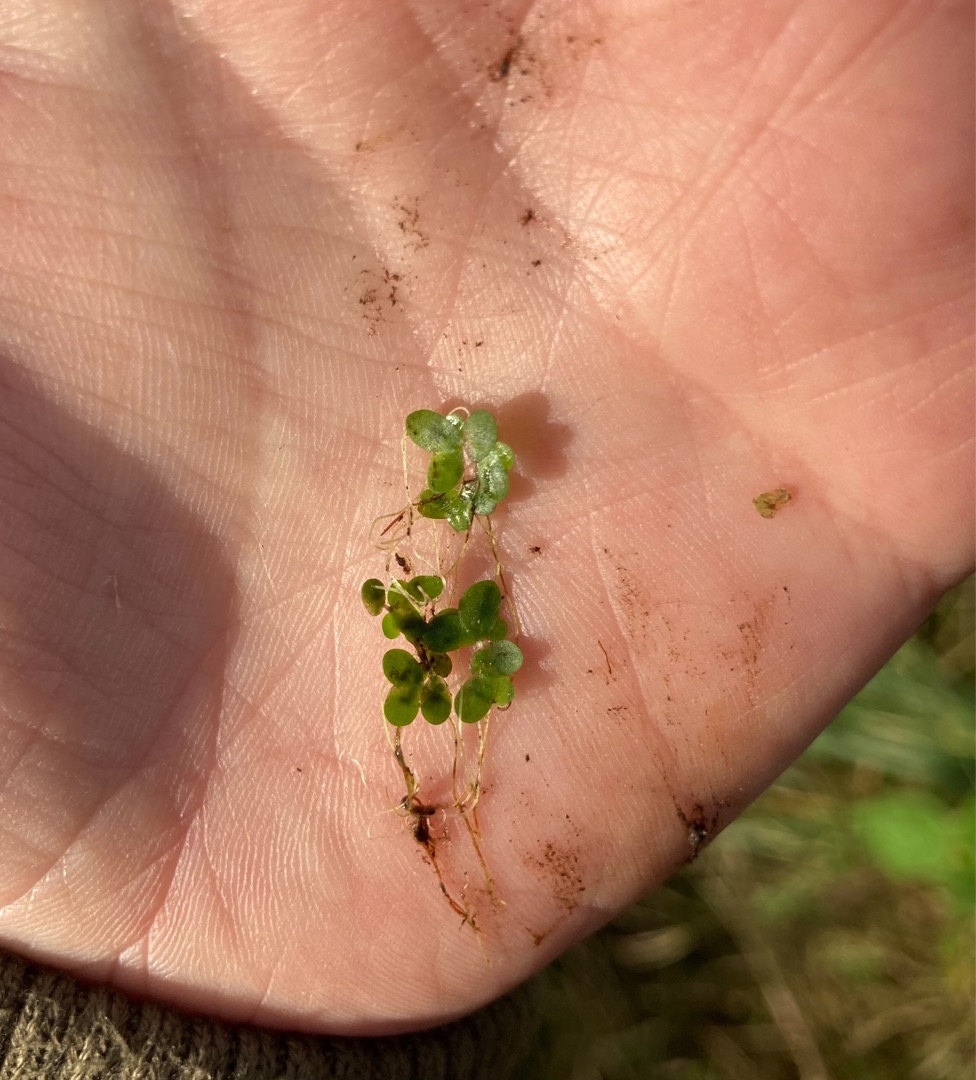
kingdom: Plantae
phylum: Tracheophyta
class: Liliopsida
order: Alismatales
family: Araceae
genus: Lemna
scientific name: Lemna minor
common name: Liden andemad
